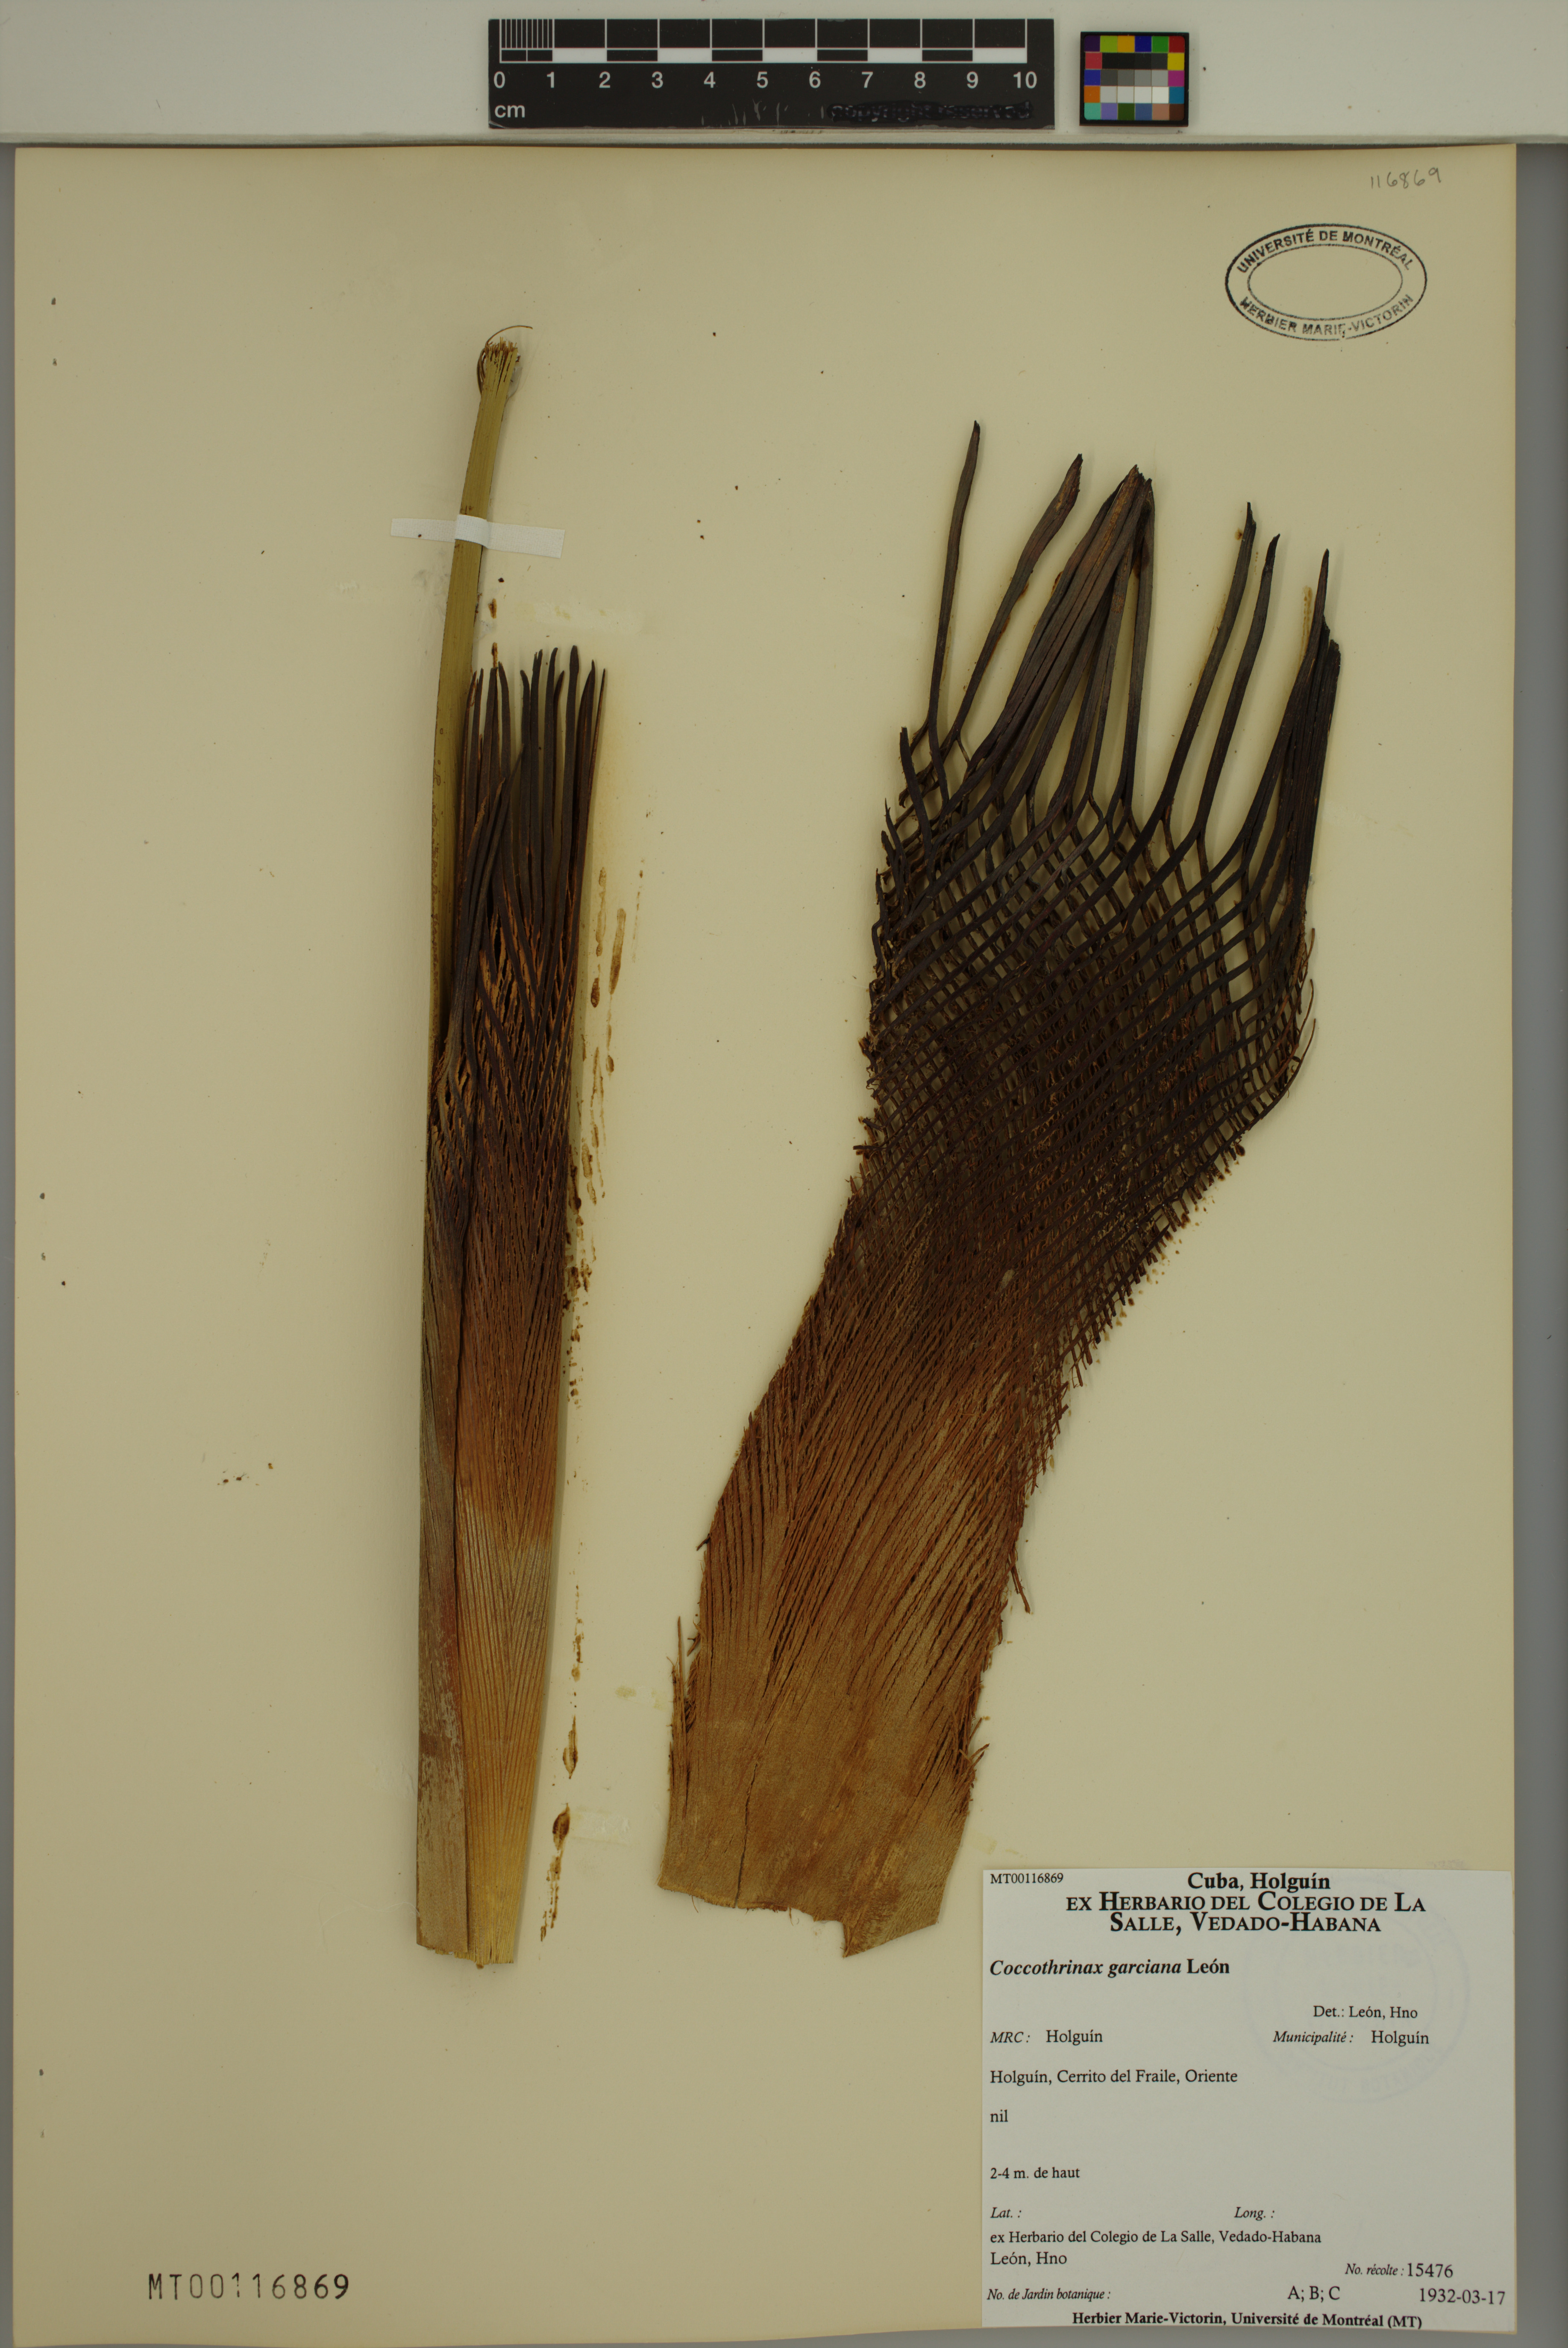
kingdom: Plantae
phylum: Tracheophyta
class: Liliopsida
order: Arecales
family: Arecaceae
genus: Coccothrinax
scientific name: Coccothrinax garciana
